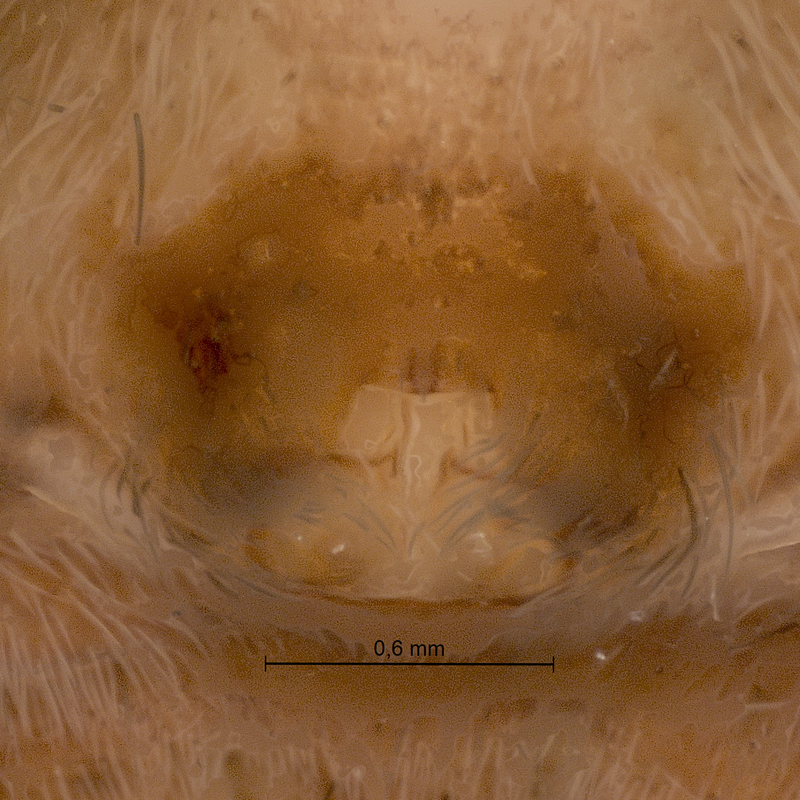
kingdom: Animalia
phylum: Arthropoda
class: Arachnida
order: Araneae
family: Lycosidae
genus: Pardosa
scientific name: Pardosa lugubris
